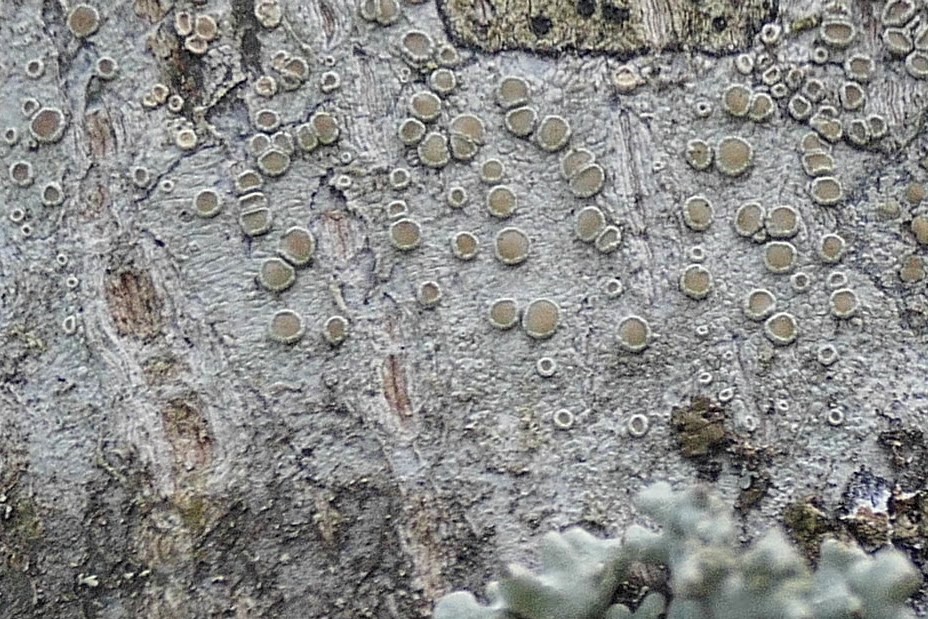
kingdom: Fungi
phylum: Ascomycota
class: Lecanoromycetes
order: Lecanorales
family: Lecanoraceae
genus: Lecanora
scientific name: Lecanora chlarotera
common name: brun kantskivelav
